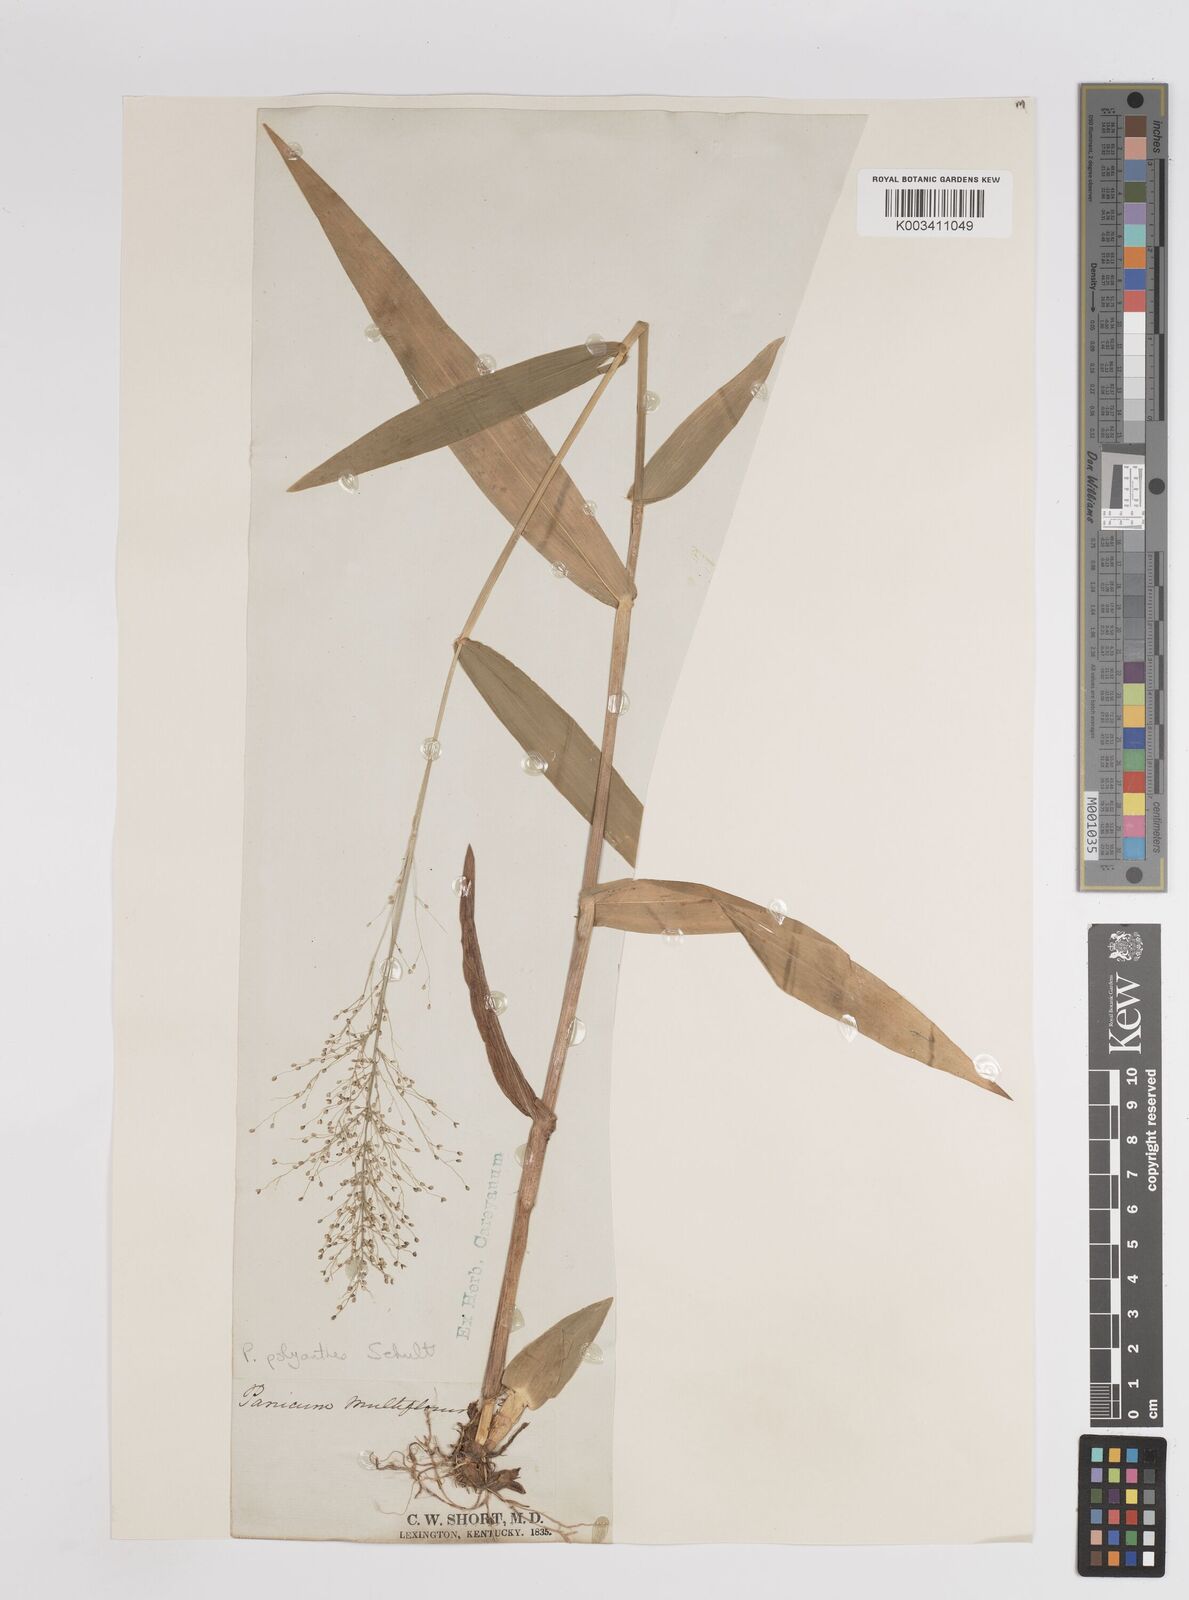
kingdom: Plantae
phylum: Tracheophyta
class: Liliopsida
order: Poales
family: Poaceae
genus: Dichanthelium
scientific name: Dichanthelium polyanthes
